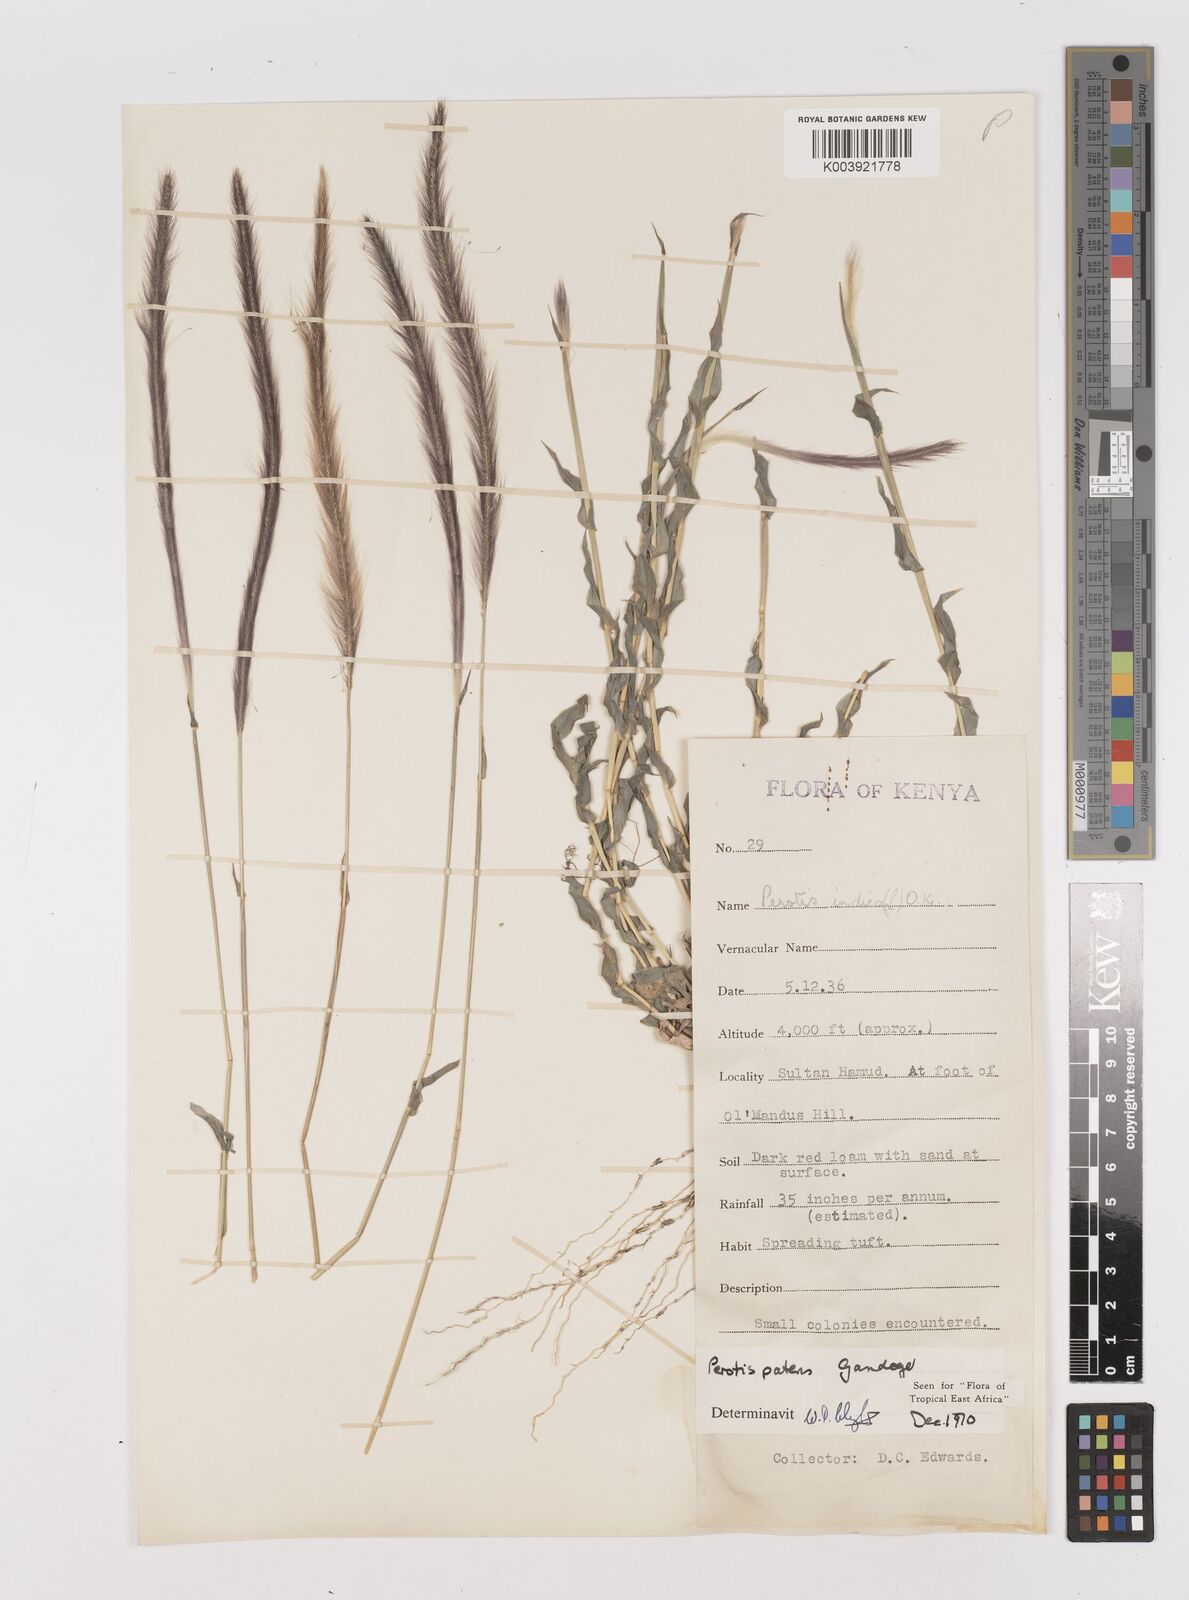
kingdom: Plantae
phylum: Tracheophyta
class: Liliopsida
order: Poales
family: Poaceae
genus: Perotis
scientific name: Perotis patens
